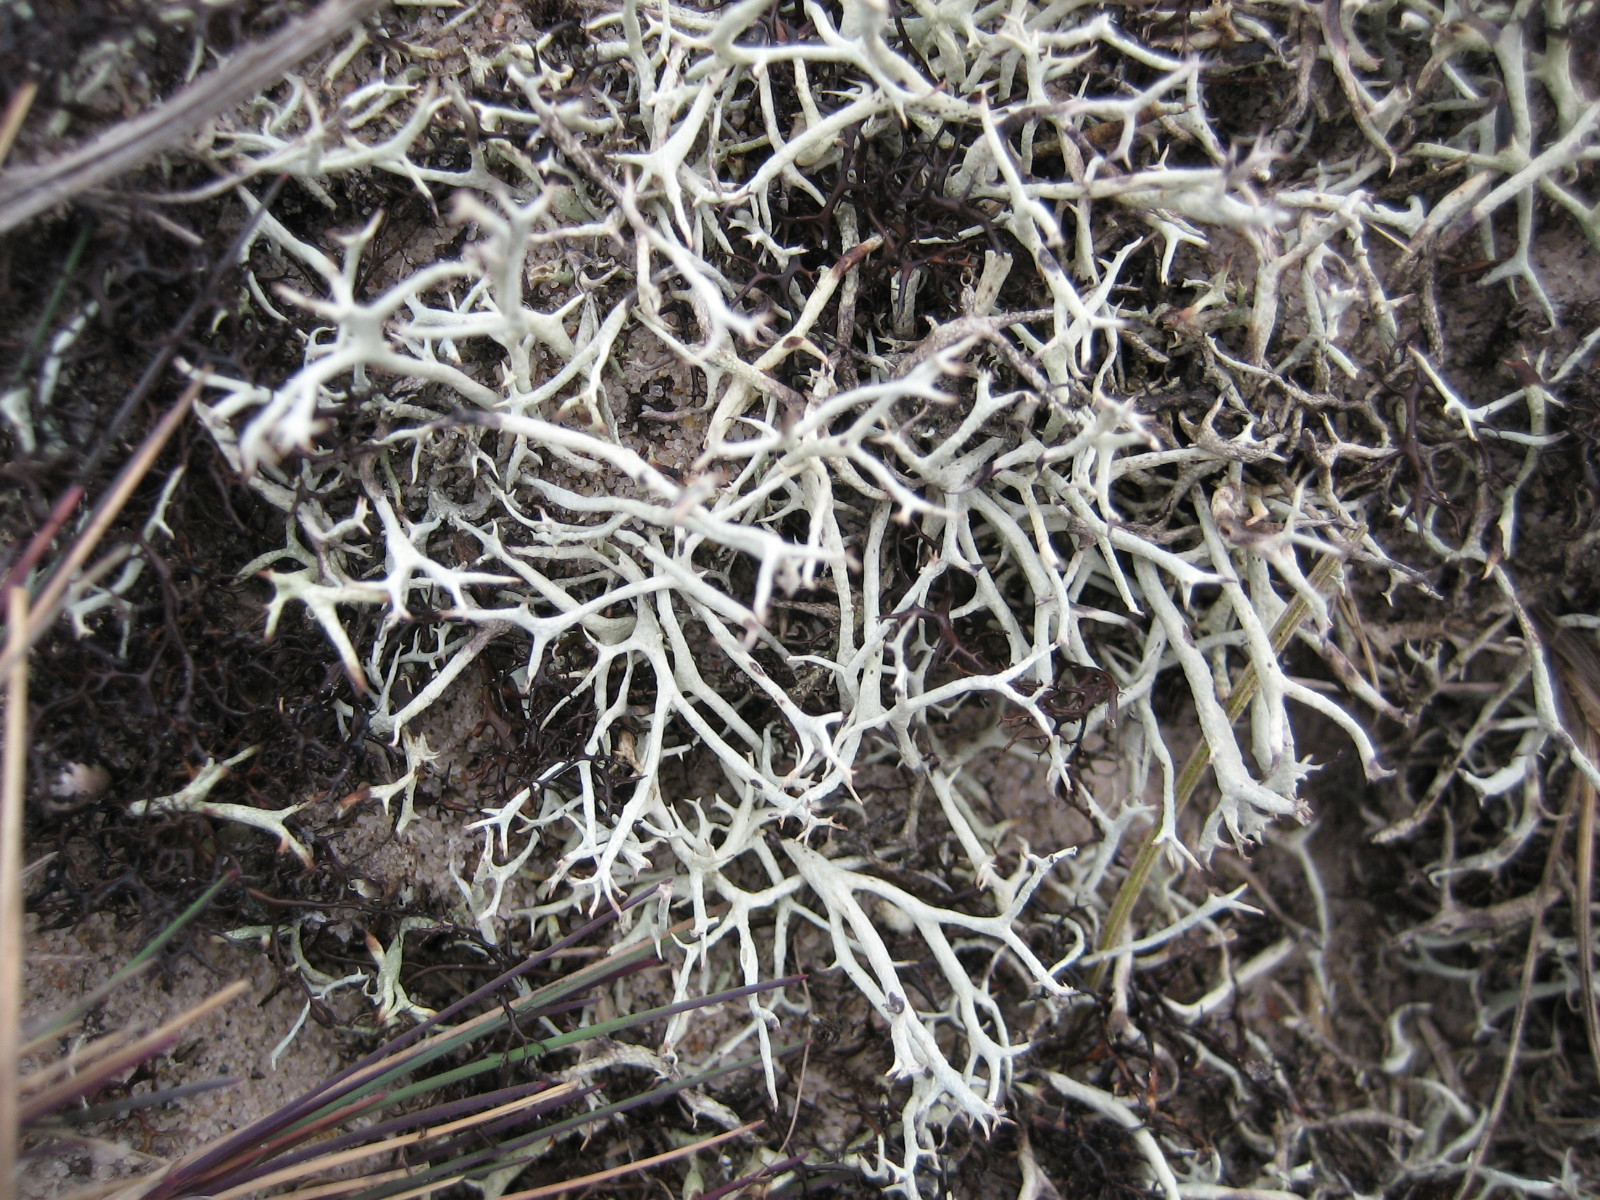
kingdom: Fungi
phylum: Ascomycota
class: Lecanoromycetes
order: Lecanorales
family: Cladoniaceae
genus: Cladonia
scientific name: Cladonia zopfii
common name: klit-bægerlav
